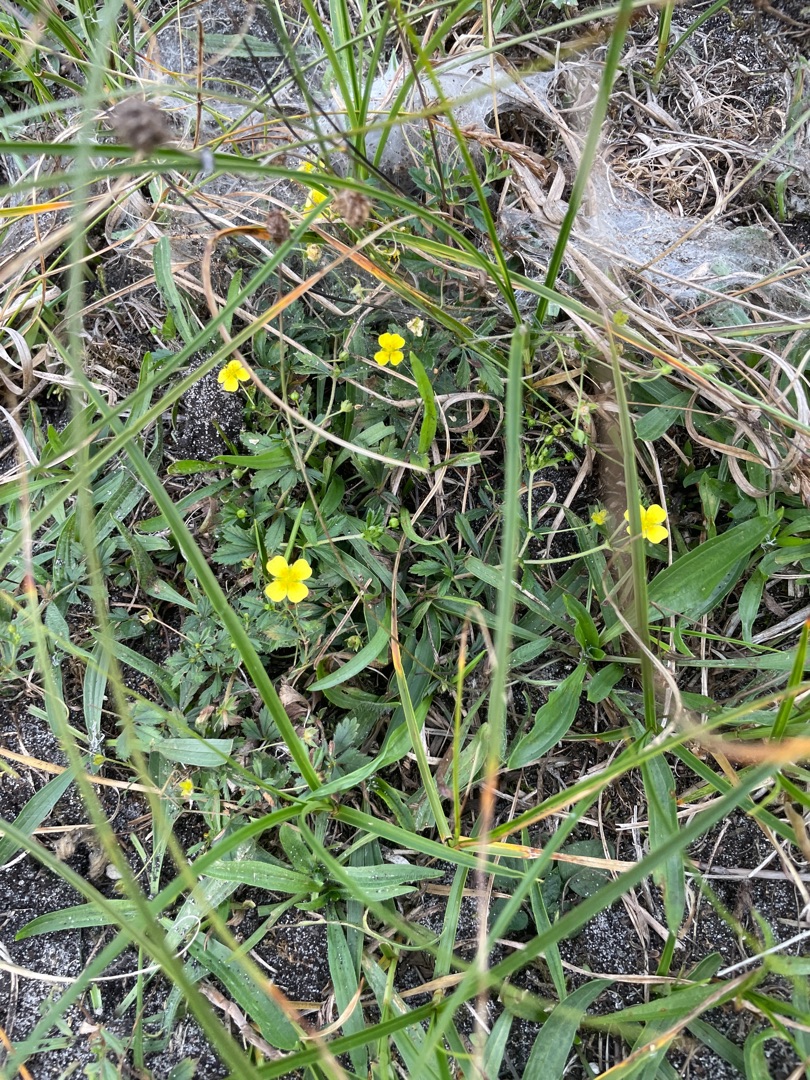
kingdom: Plantae
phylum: Tracheophyta
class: Magnoliopsida
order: Rosales
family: Rosaceae
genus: Potentilla
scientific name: Potentilla erecta
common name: Tormentil
